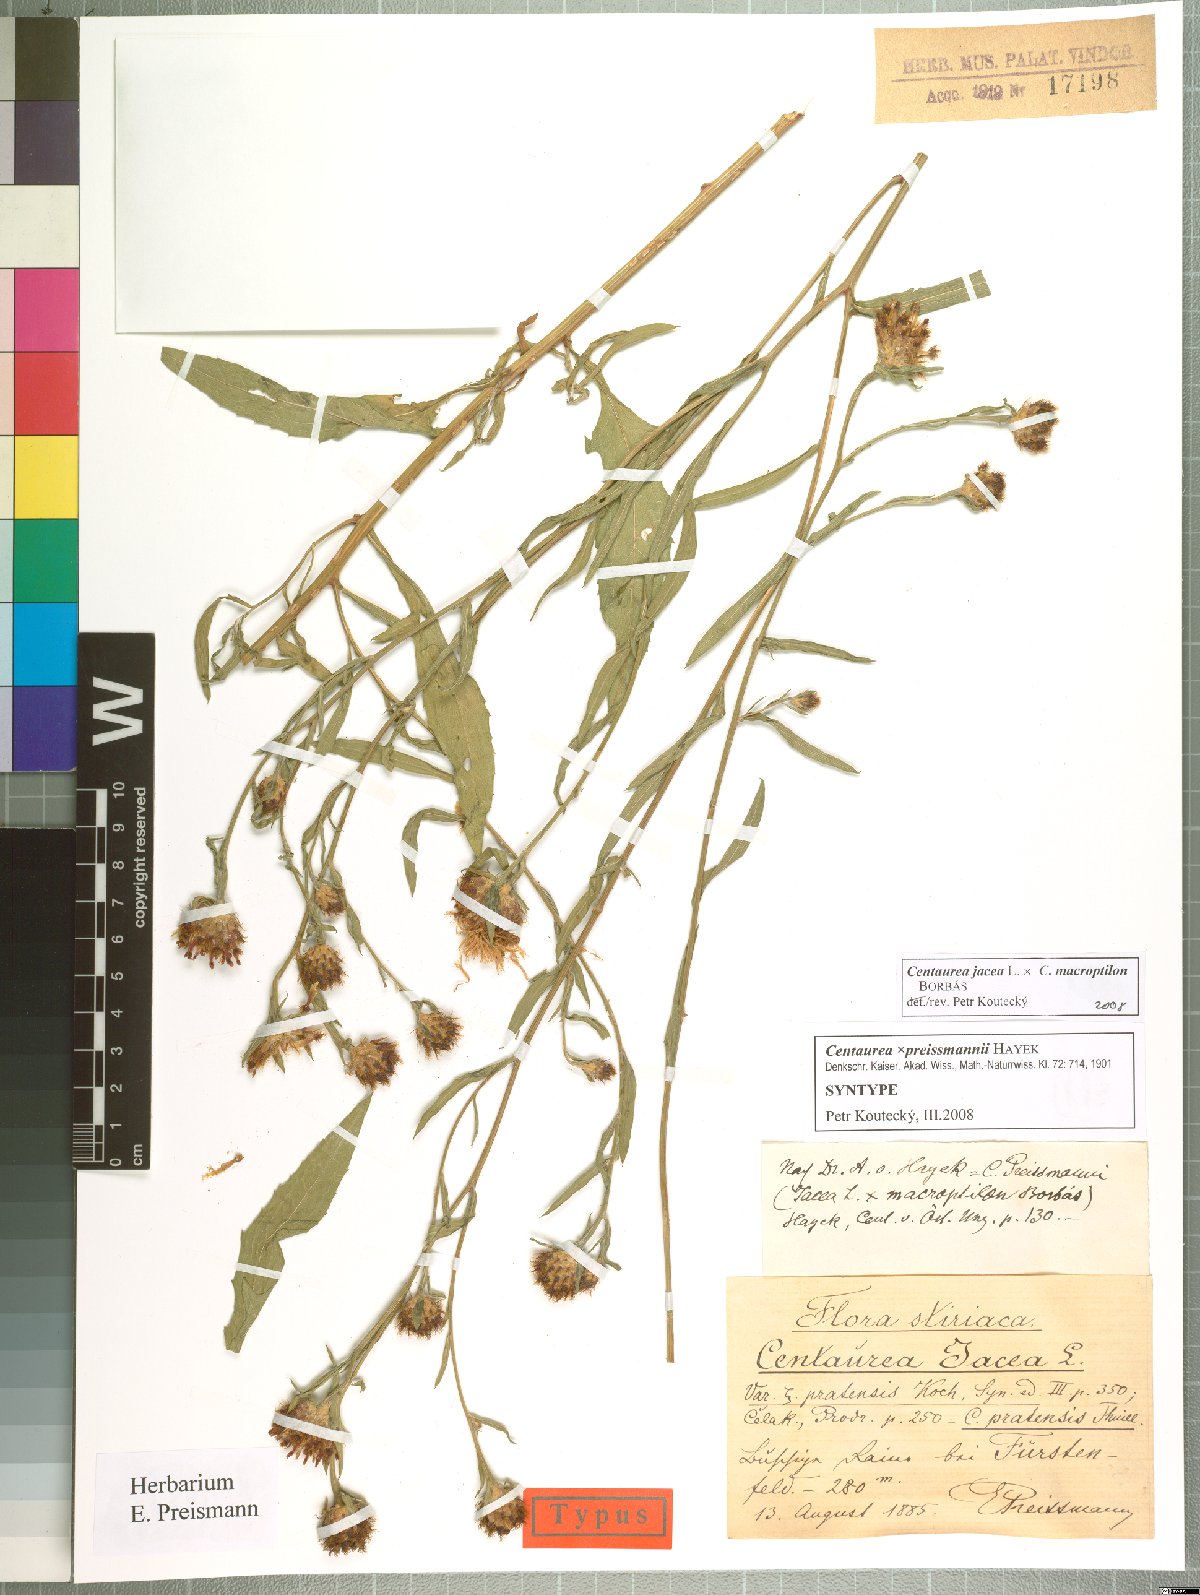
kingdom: Plantae
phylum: Tracheophyta
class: Magnoliopsida
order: Asterales
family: Asteraceae
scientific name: Asteraceae
